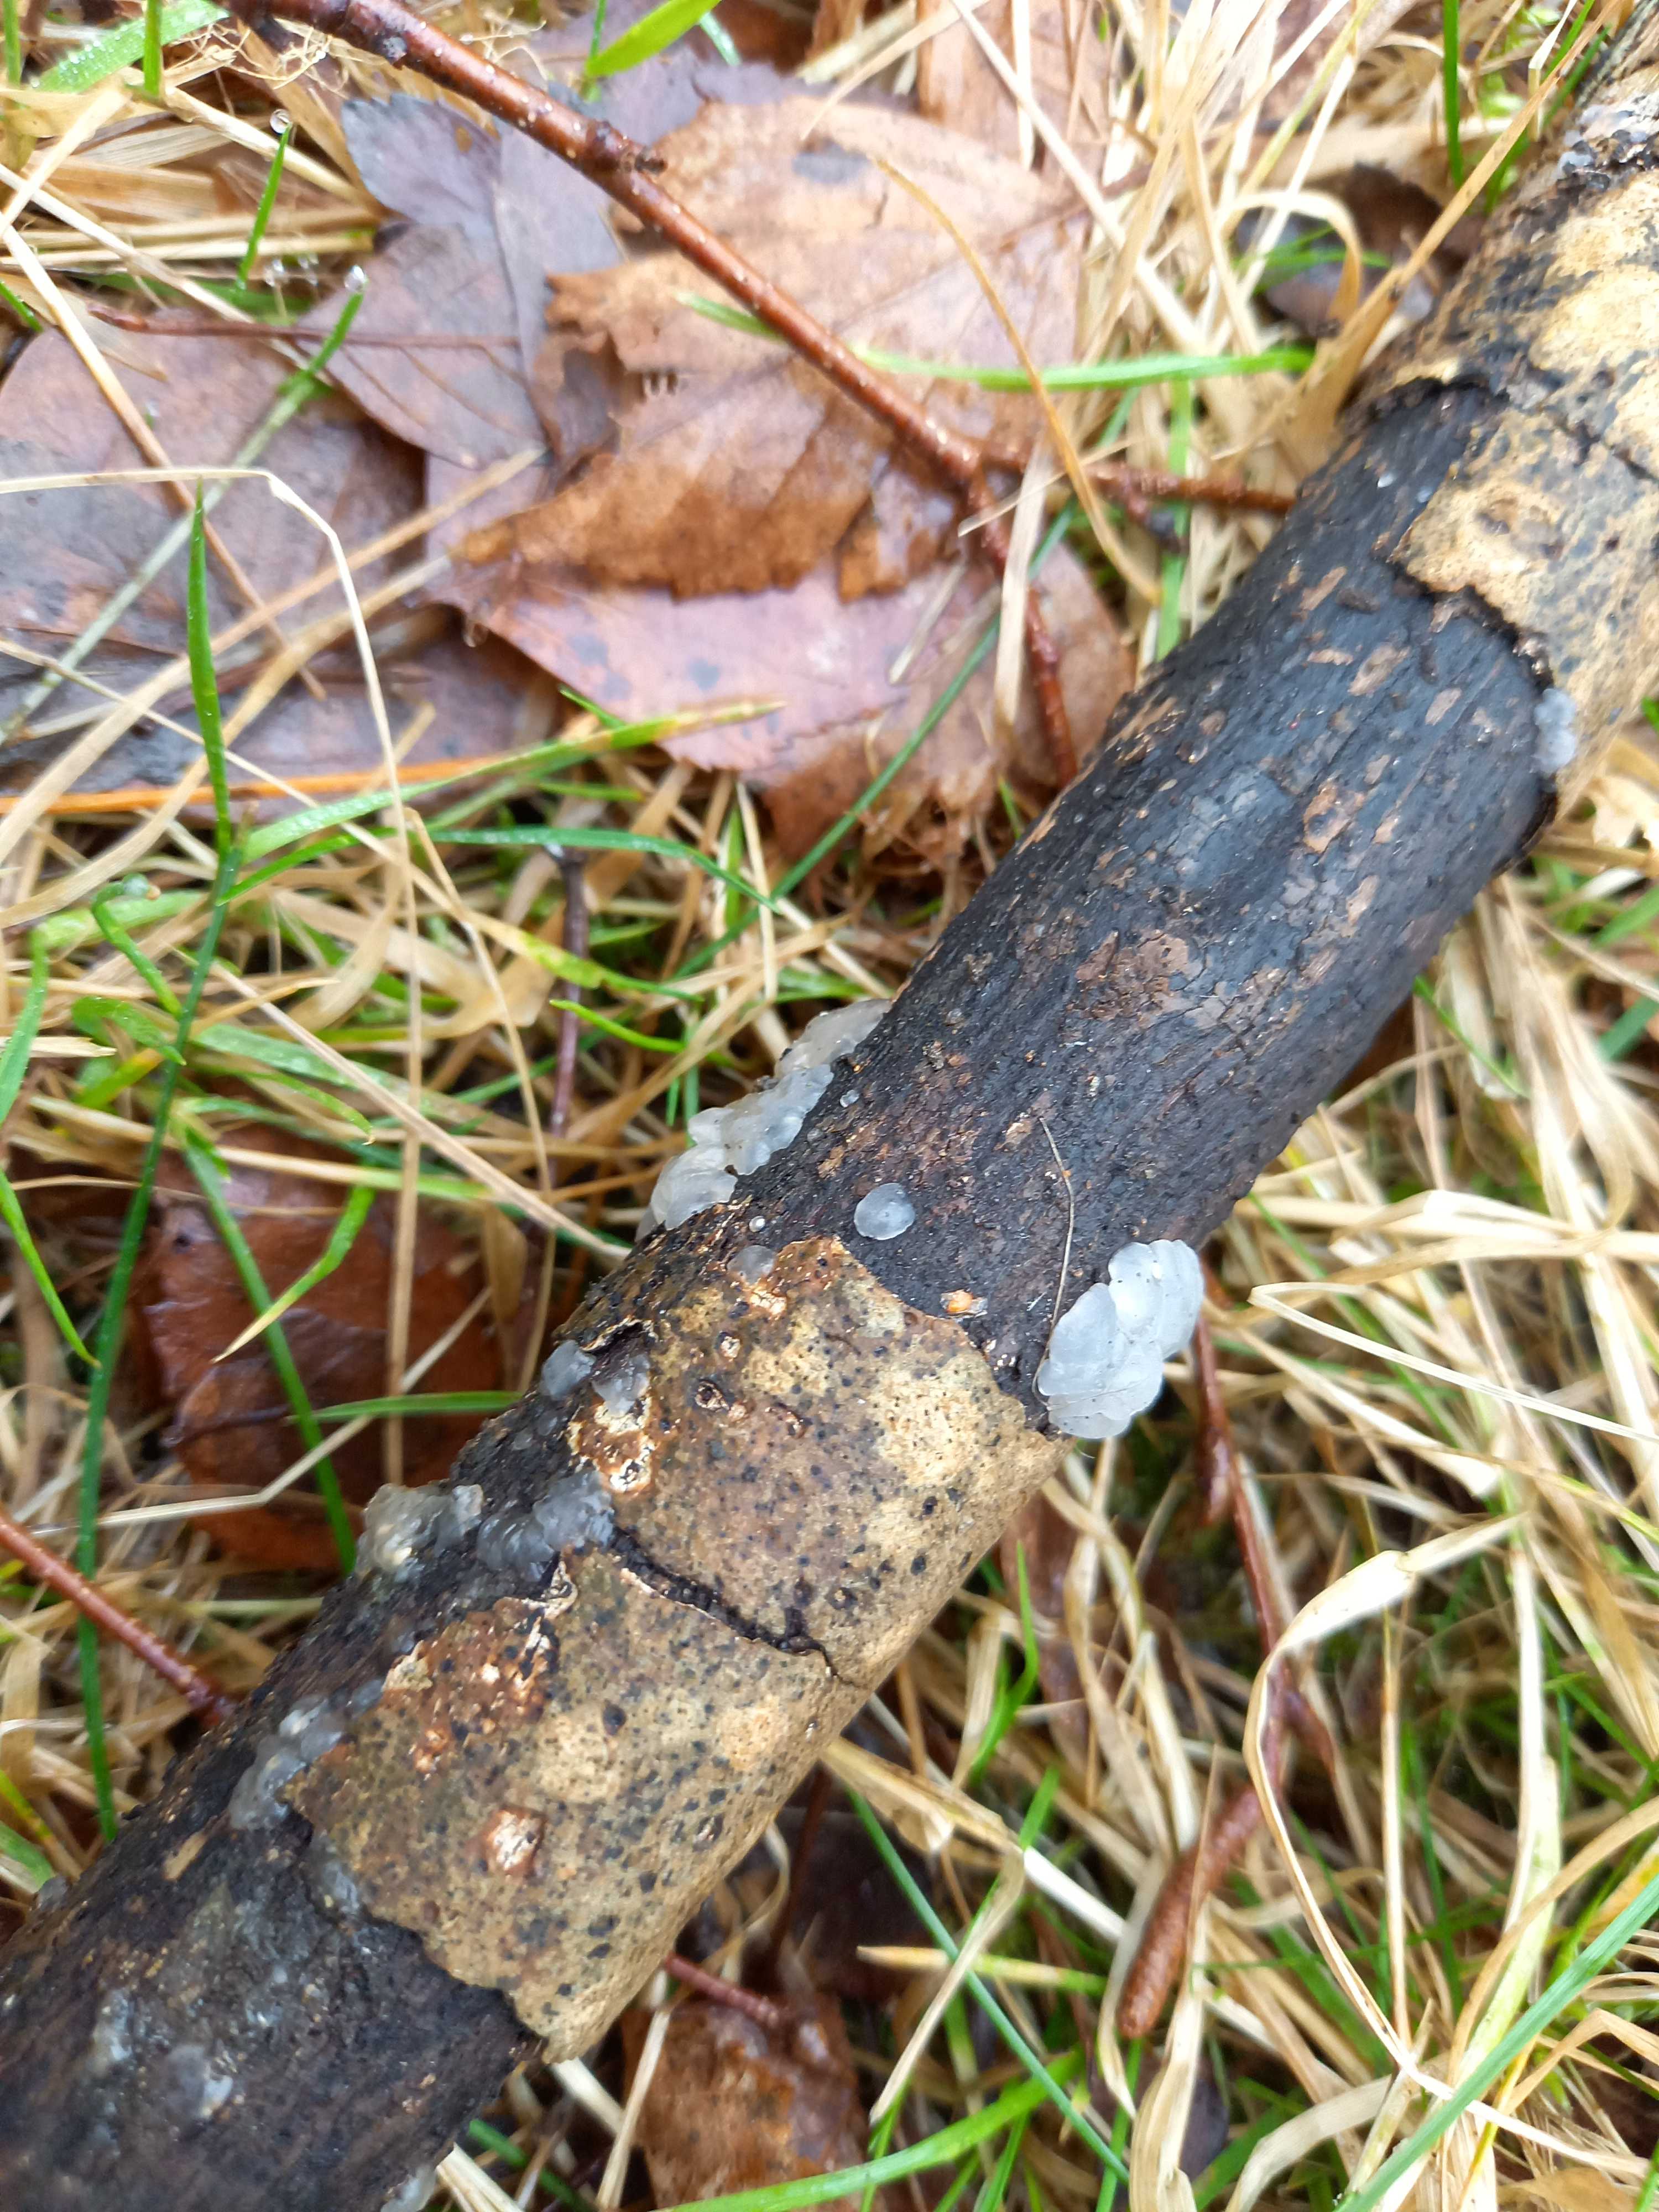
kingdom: Fungi
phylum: Basidiomycota
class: Agaricomycetes
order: Auriculariales
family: Hyaloriaceae
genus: Myxarium
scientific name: Myxarium nucleatum
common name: klar bævretop
